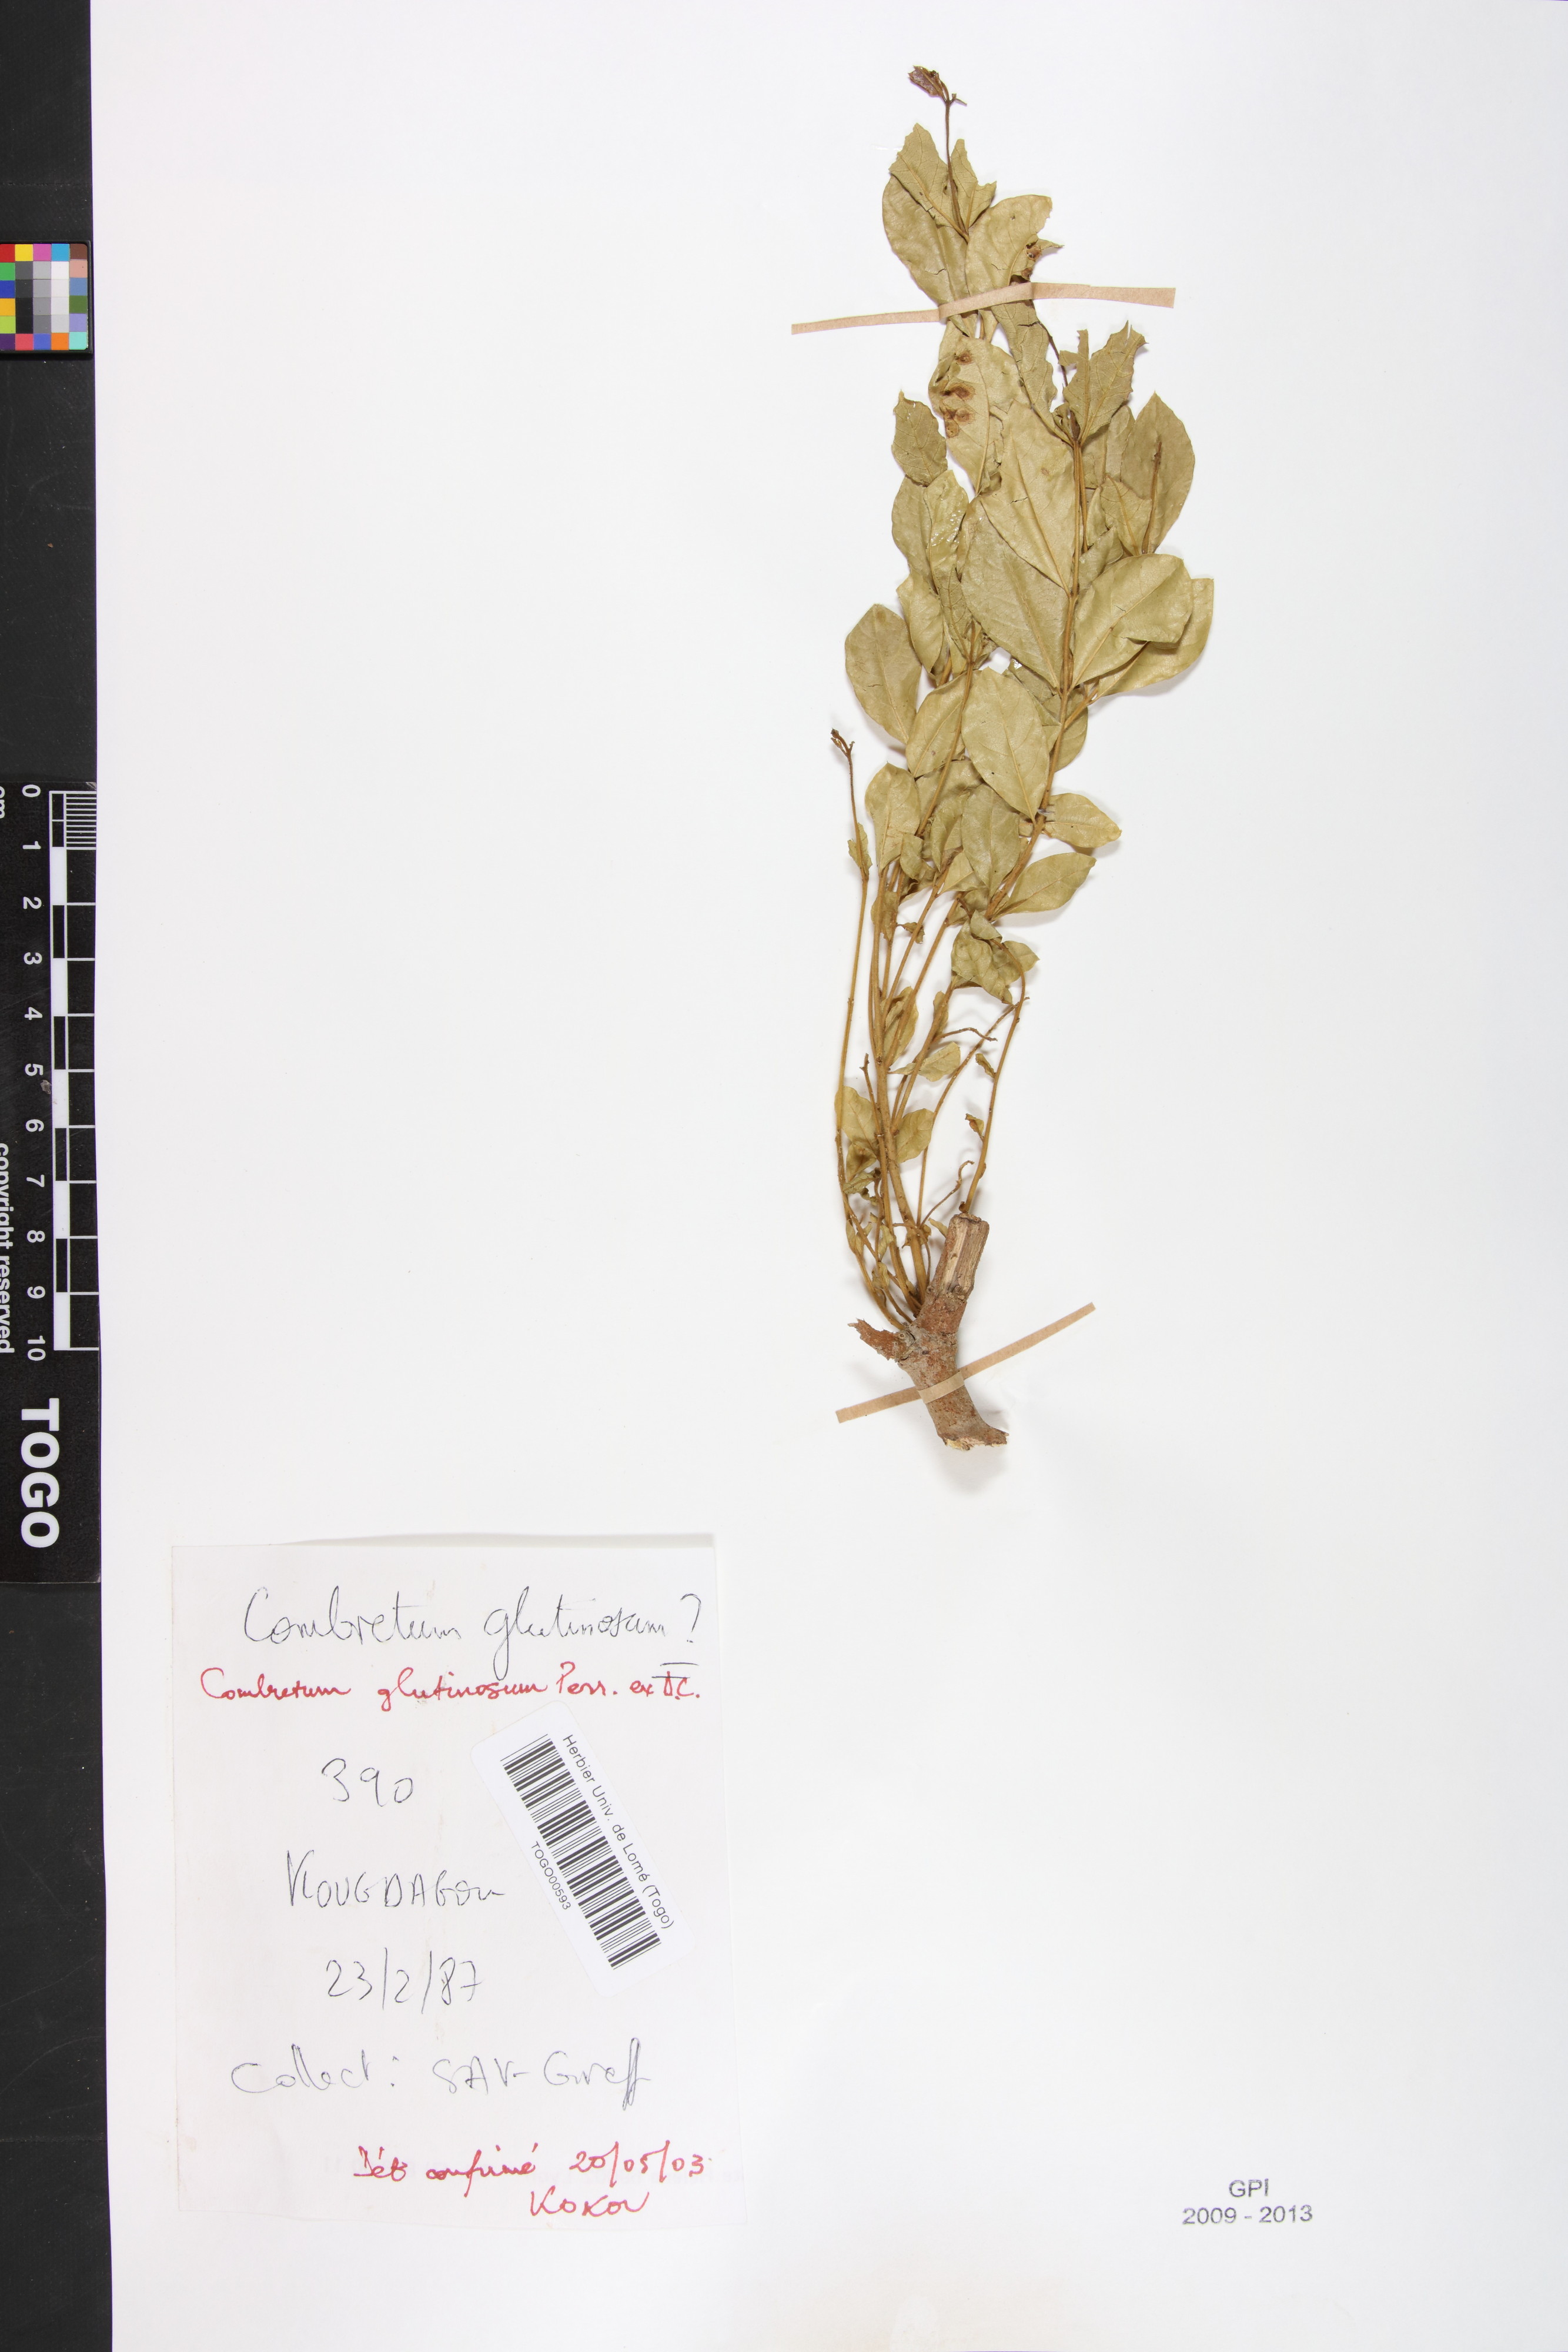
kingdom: Plantae
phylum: Tracheophyta
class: Magnoliopsida
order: Myrtales
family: Combretaceae
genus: Combretum
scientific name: Combretum glutinosum
